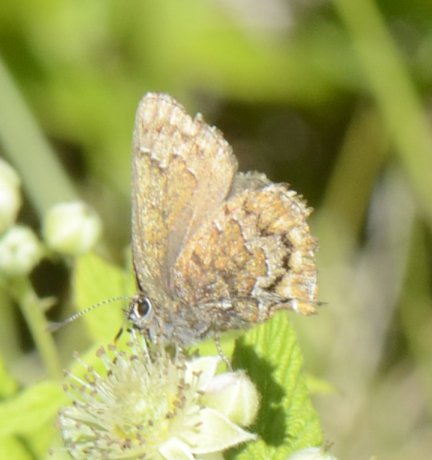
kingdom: Animalia
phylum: Arthropoda
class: Insecta
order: Lepidoptera
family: Lycaenidae
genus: Incisalia
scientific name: Incisalia niphon
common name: Eastern Pine Elfin
